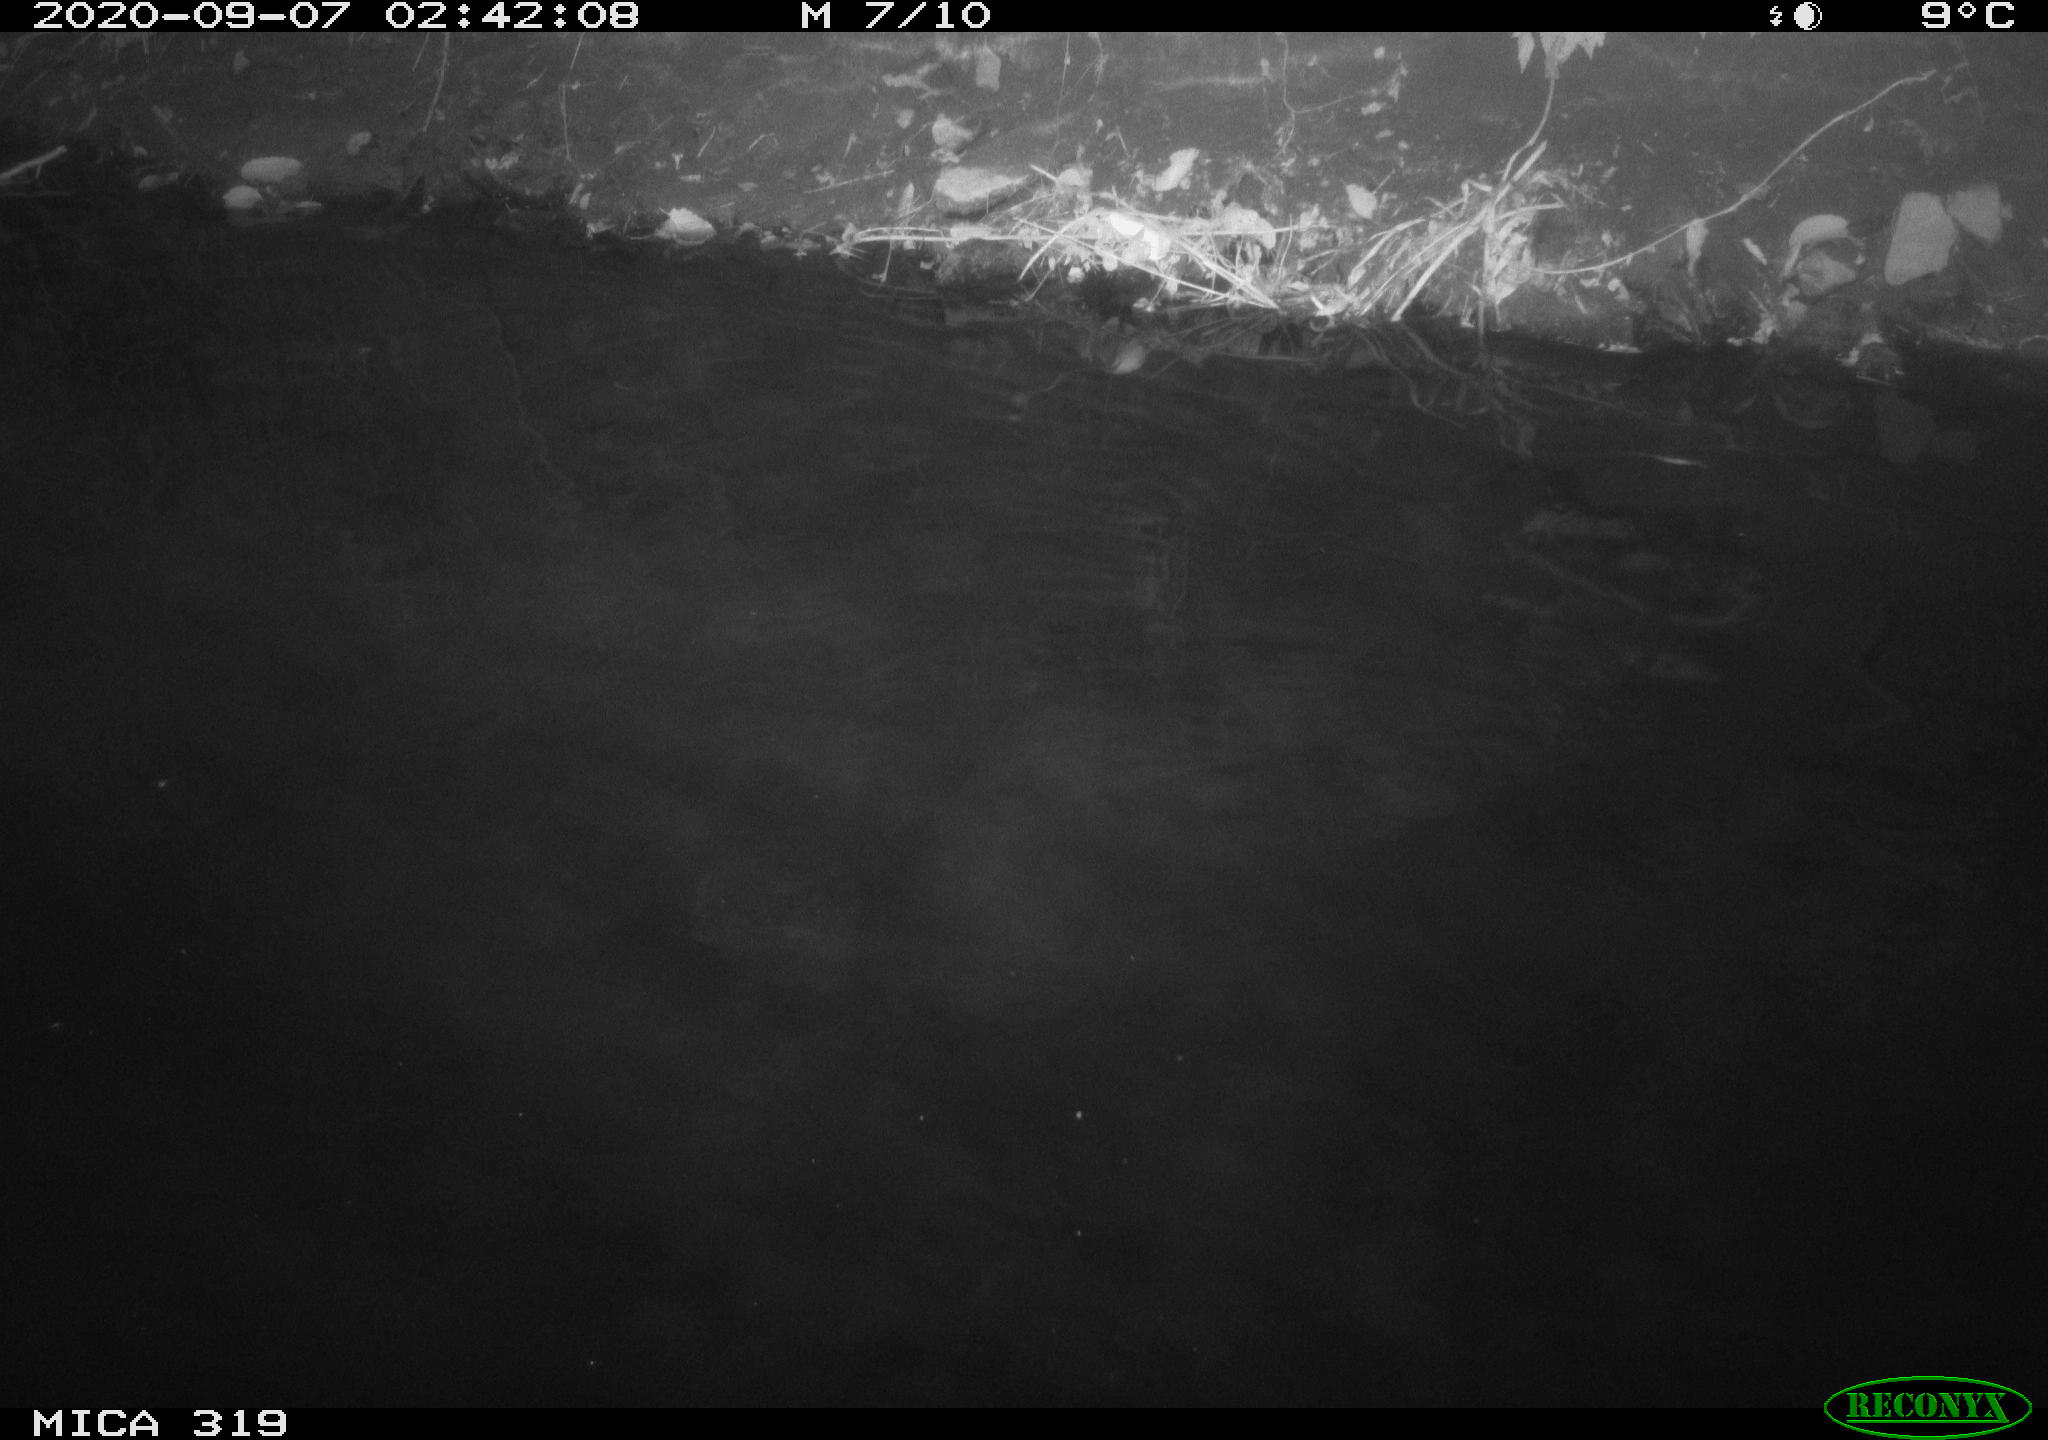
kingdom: Animalia
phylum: Chordata
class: Aves
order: Anseriformes
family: Anatidae
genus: Anas
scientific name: Anas platyrhynchos
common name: Mallard
